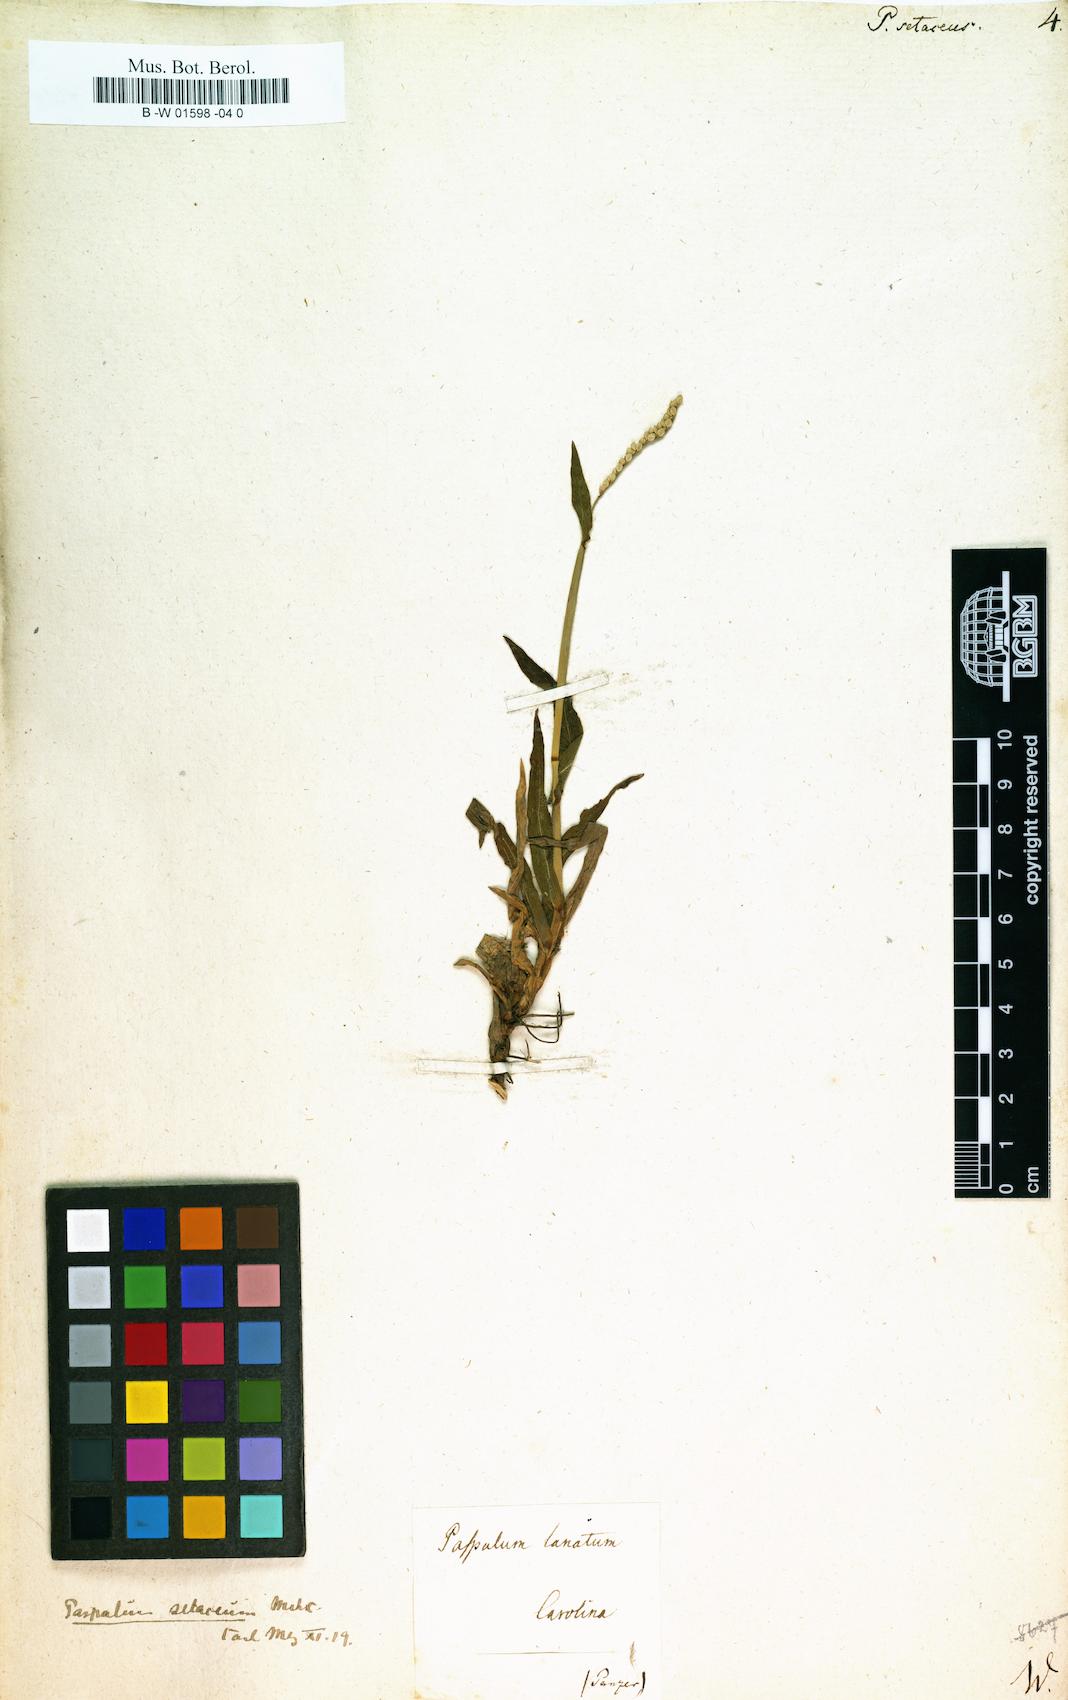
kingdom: Plantae
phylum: Tracheophyta
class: Liliopsida
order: Poales
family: Poaceae
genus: Paspalus
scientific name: Paspalus
